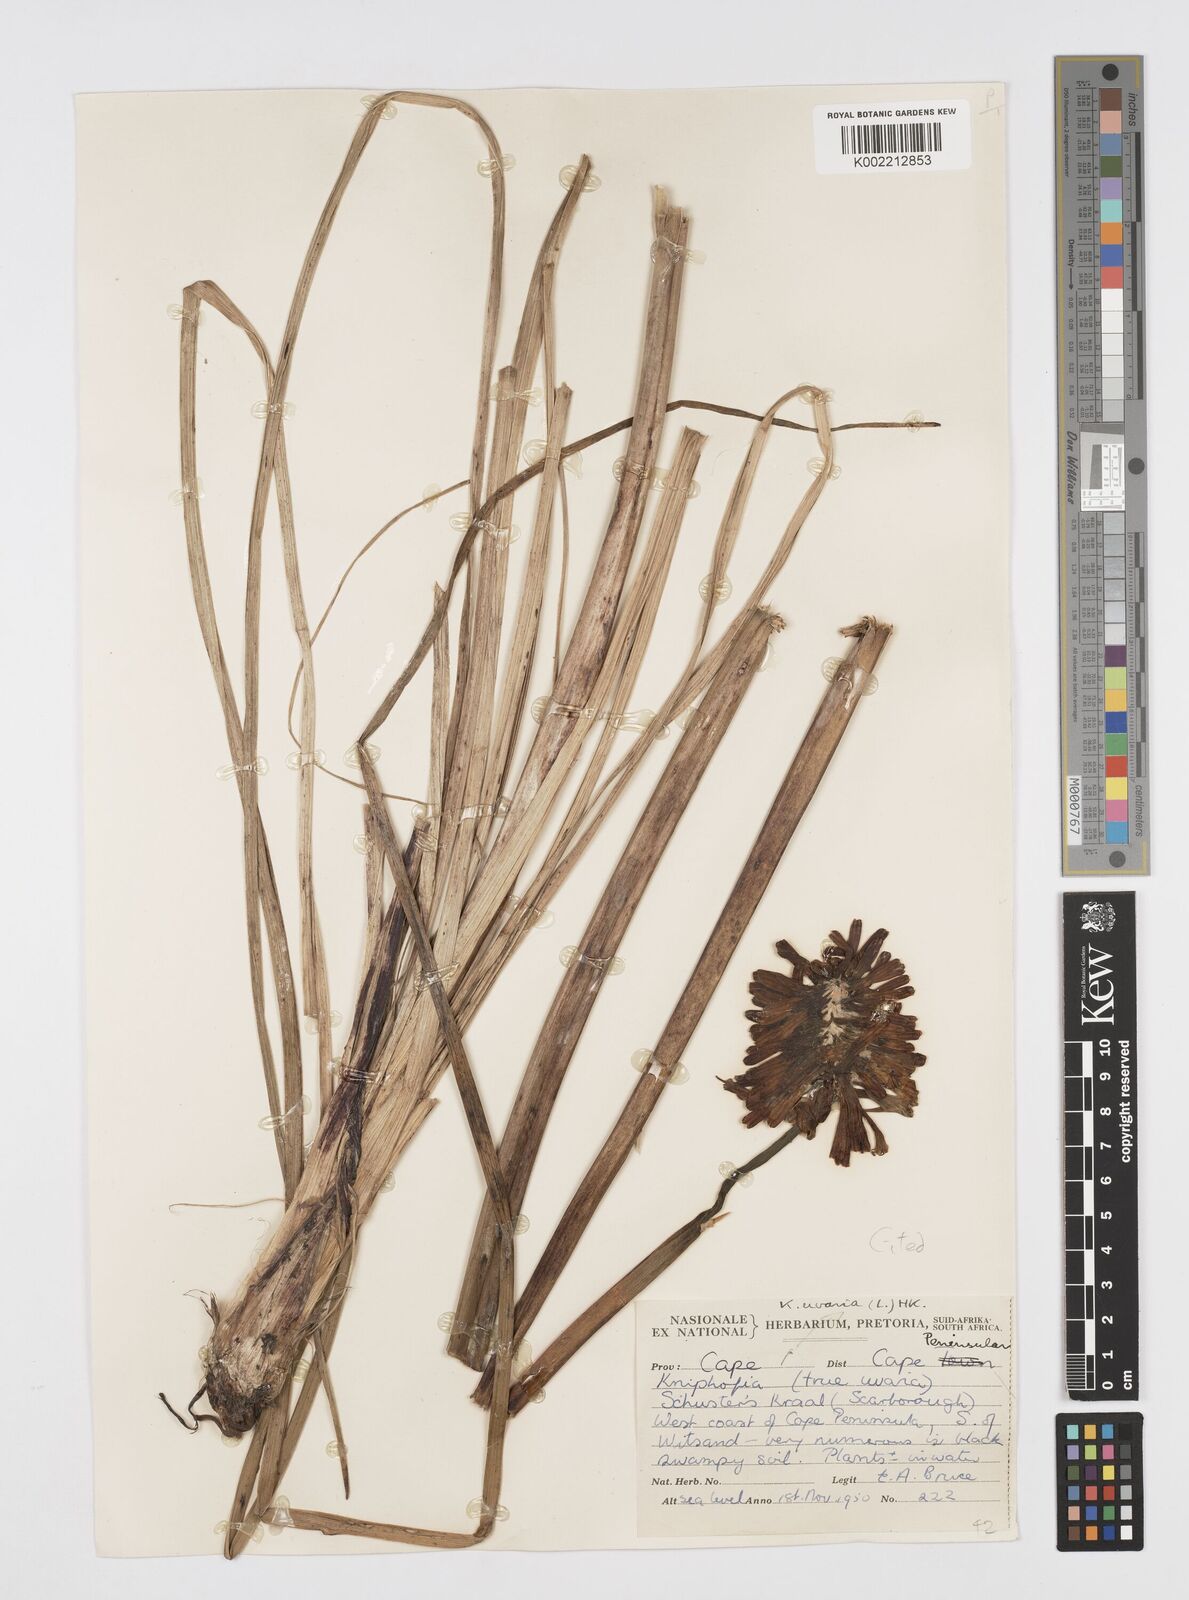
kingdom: Plantae
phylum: Tracheophyta
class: Liliopsida
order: Asparagales
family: Asphodelaceae
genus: Kniphofia
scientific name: Kniphofia uvaria
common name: Red-hot-poker
